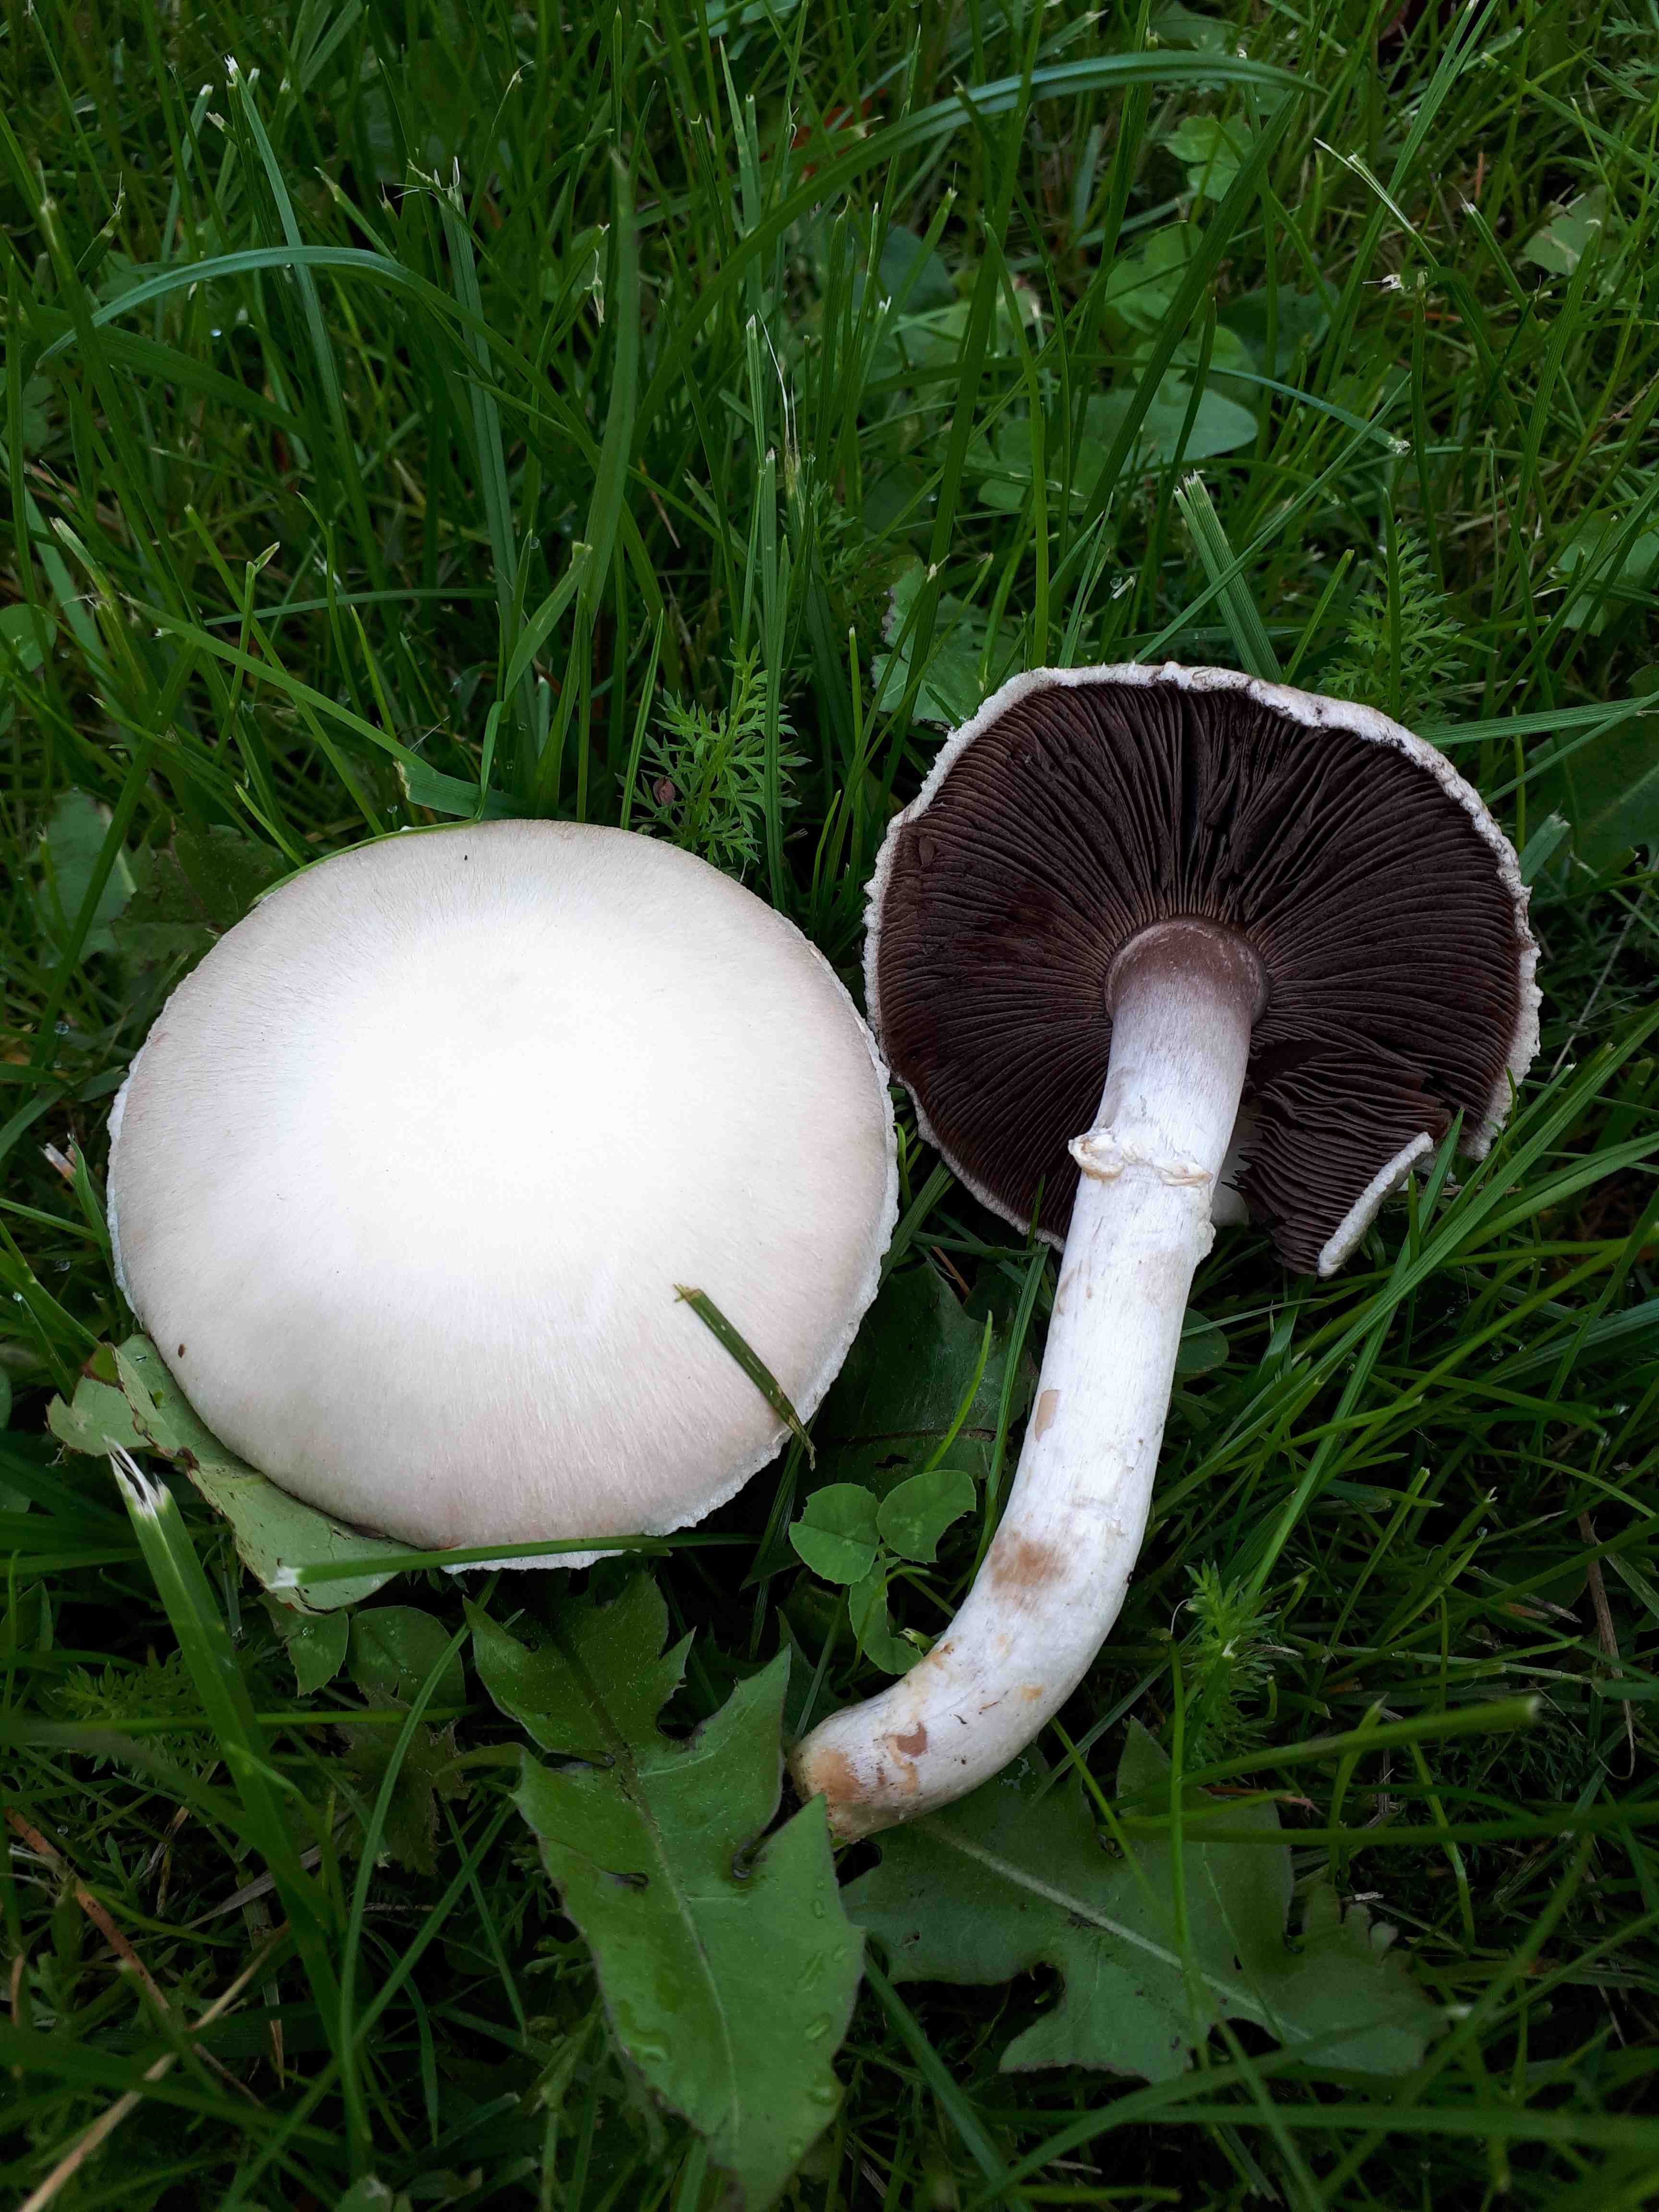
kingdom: Fungi
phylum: Basidiomycota
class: Agaricomycetes
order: Agaricales
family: Agaricaceae
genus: Agaricus
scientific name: Agaricus campestris
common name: mark-champignon
